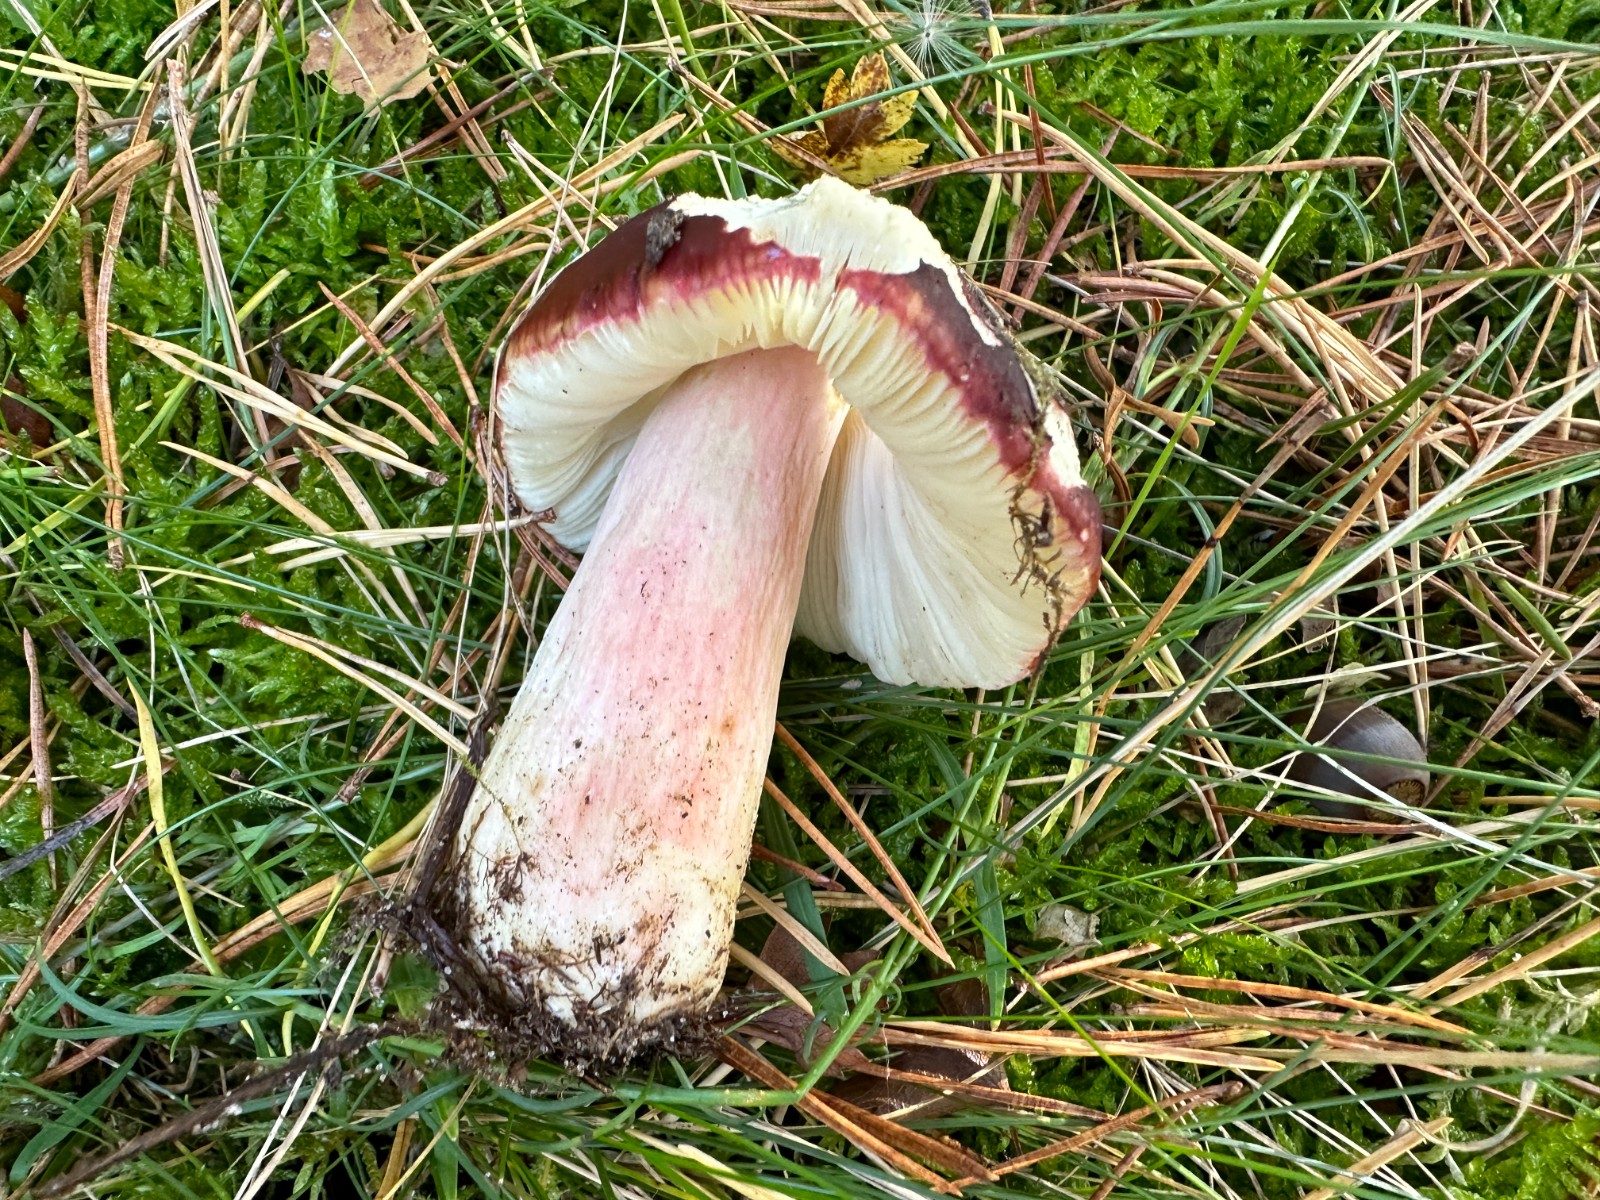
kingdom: Fungi
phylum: Basidiomycota
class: Agaricomycetes
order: Russulales
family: Russulaceae
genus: Russula
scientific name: Russula xerampelina
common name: hummer-skørhat
